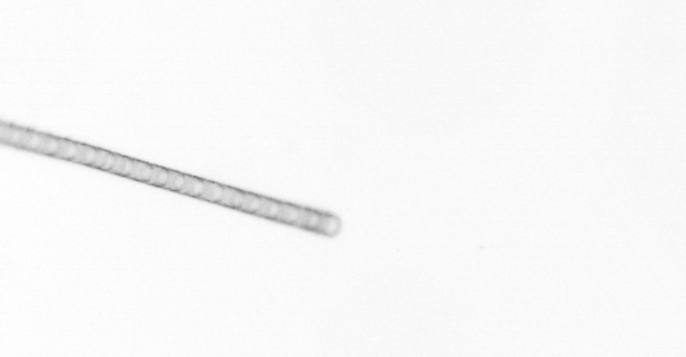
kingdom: Chromista
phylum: Ochrophyta
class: Bacillariophyceae
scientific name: Bacillariophyceae
